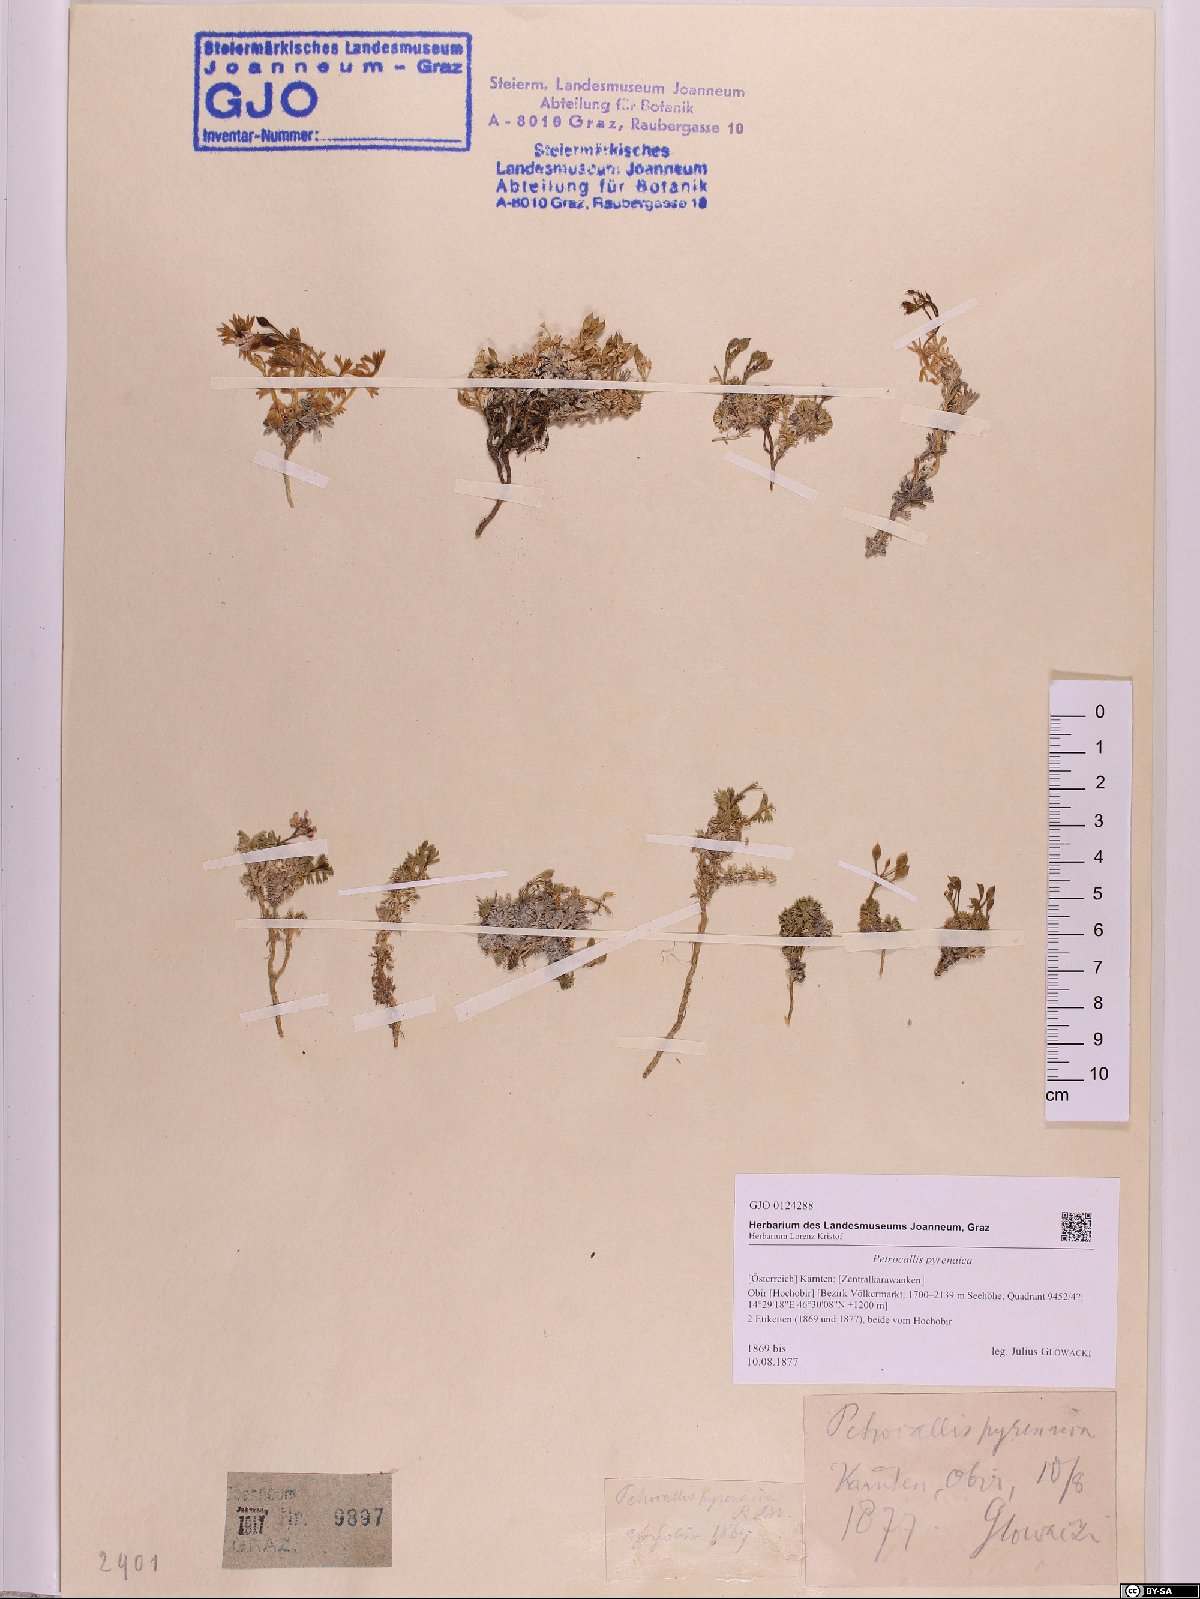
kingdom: Plantae
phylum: Tracheophyta
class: Magnoliopsida
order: Brassicales
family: Brassicaceae
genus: Petrocallis
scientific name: Petrocallis pyrenaica
